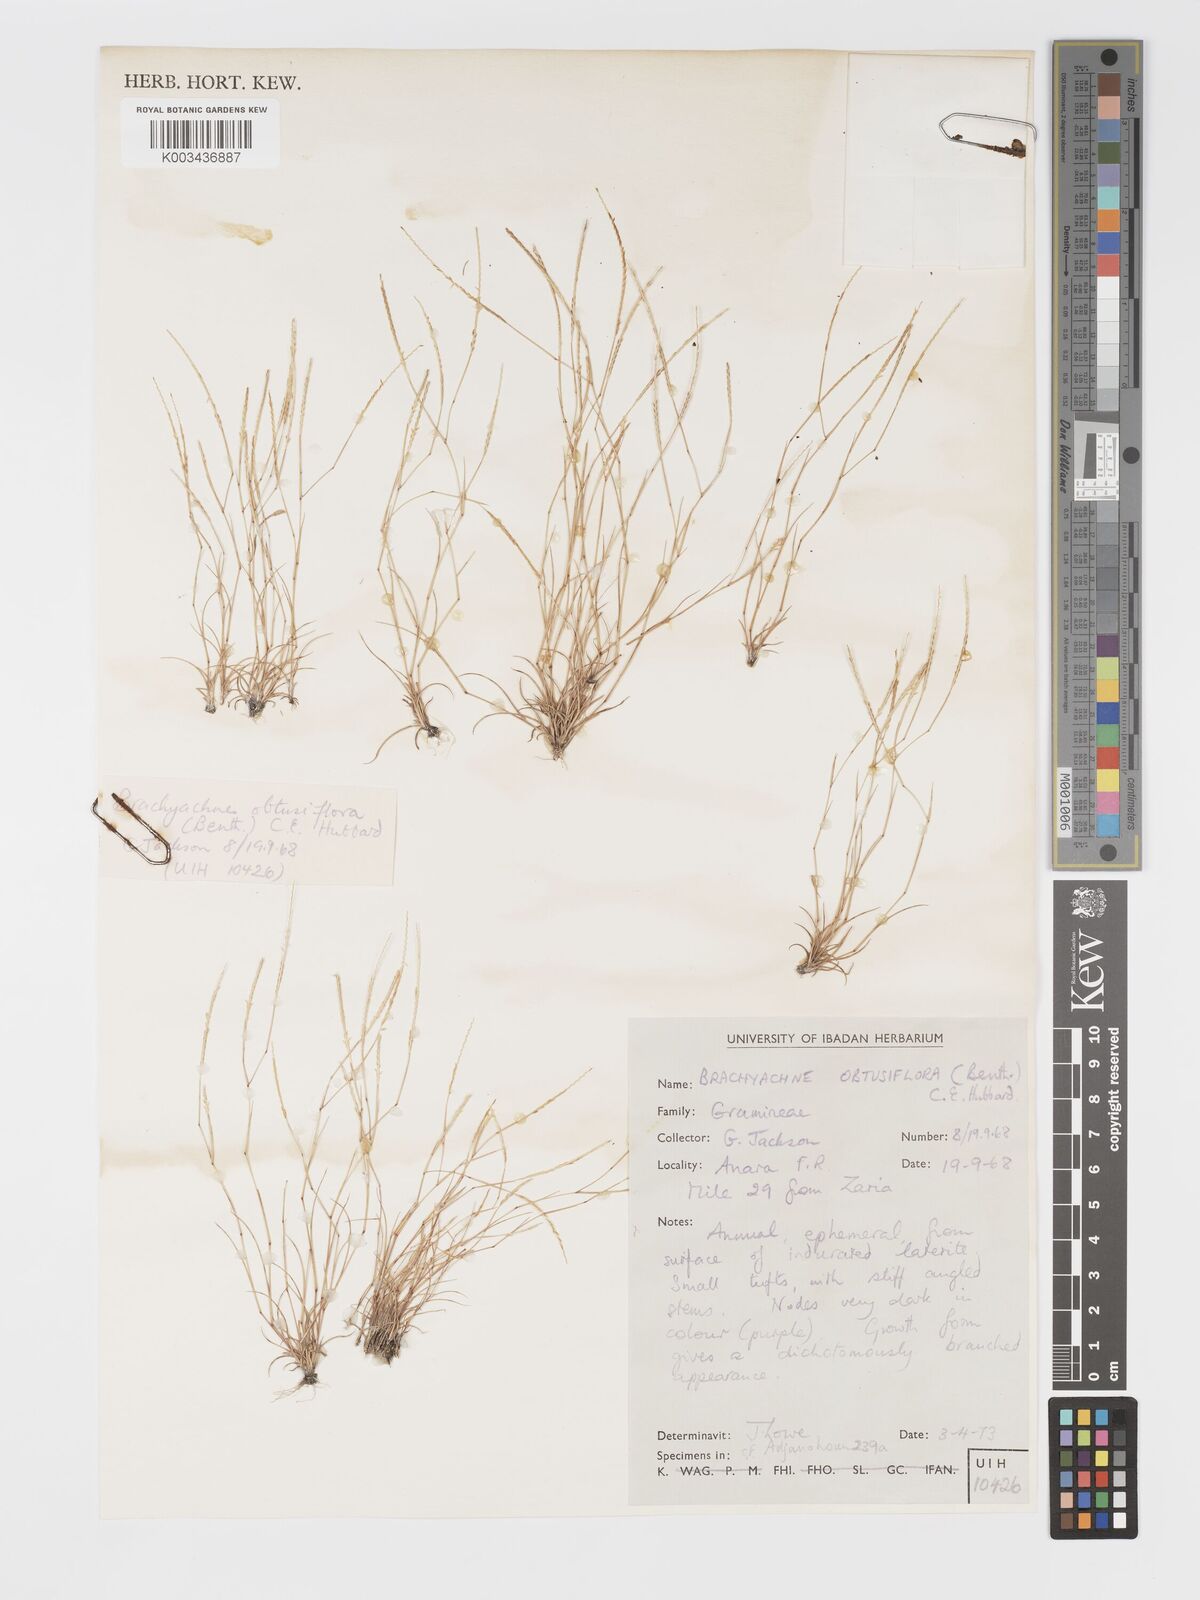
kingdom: Plantae
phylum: Tracheophyta
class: Liliopsida
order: Poales
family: Poaceae
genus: Micrachne
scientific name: Micrachne obtusiflora
